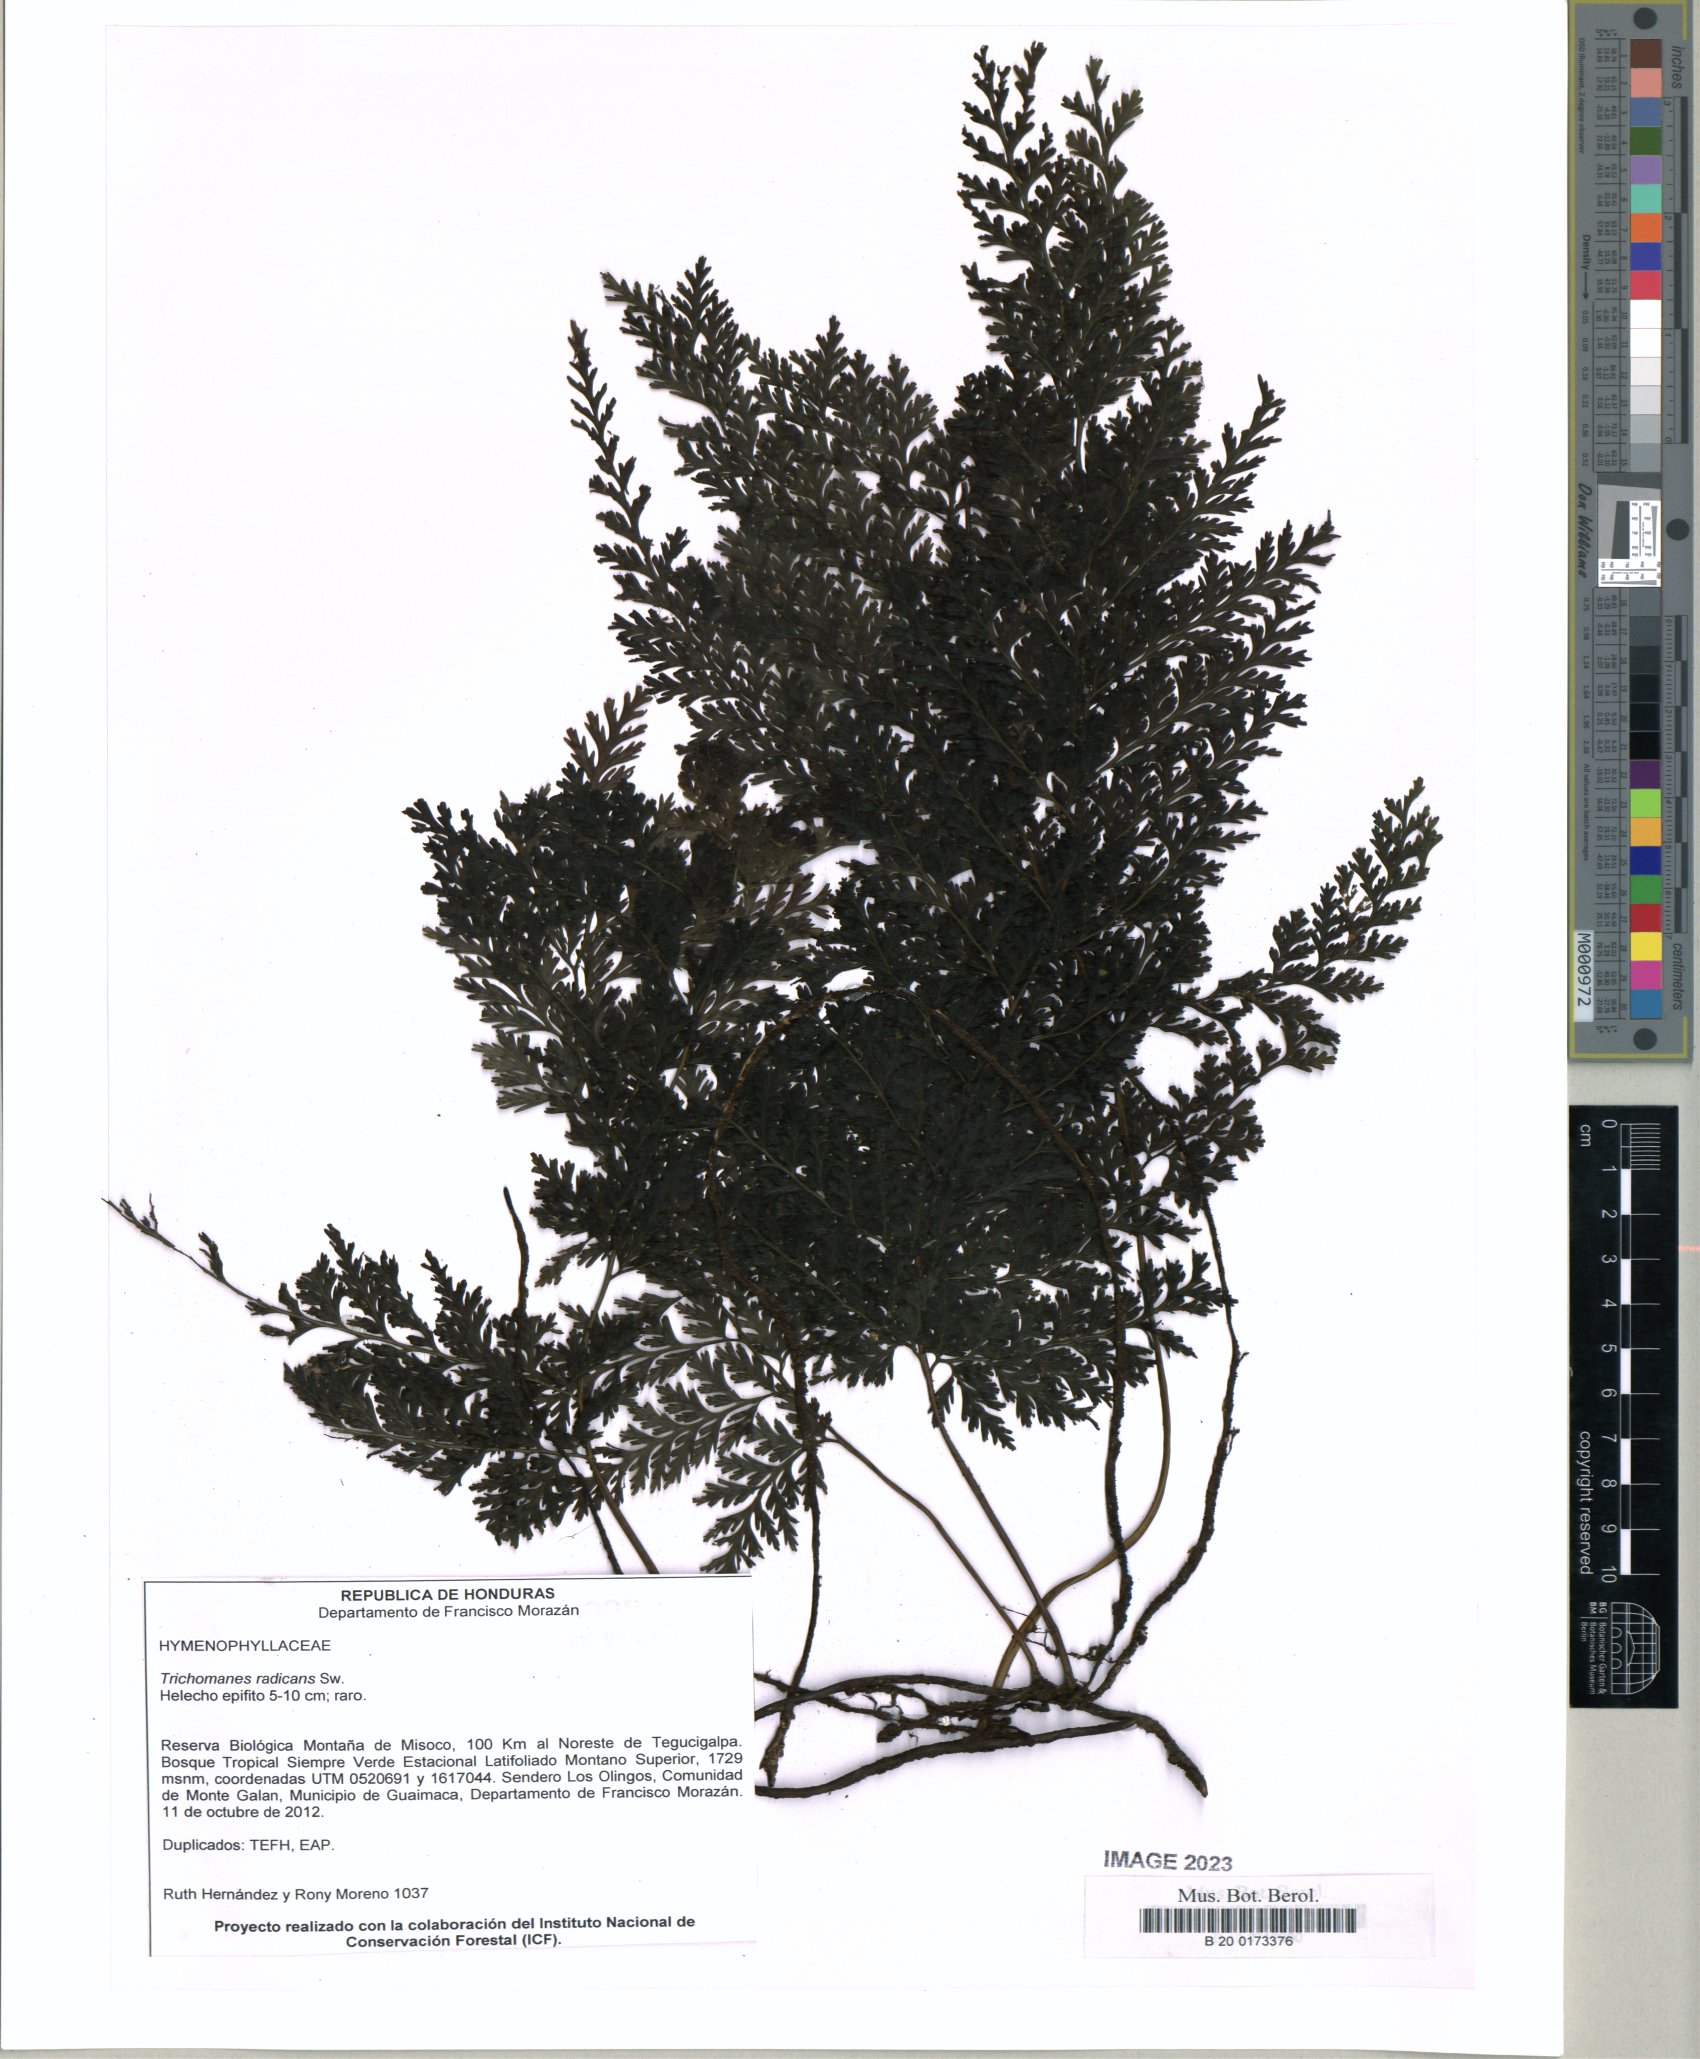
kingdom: Plantae
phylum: Tracheophyta
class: Polypodiopsida
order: Hymenophyllales
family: Hymenophyllaceae
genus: Vandenboschia
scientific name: Vandenboschia radicans
